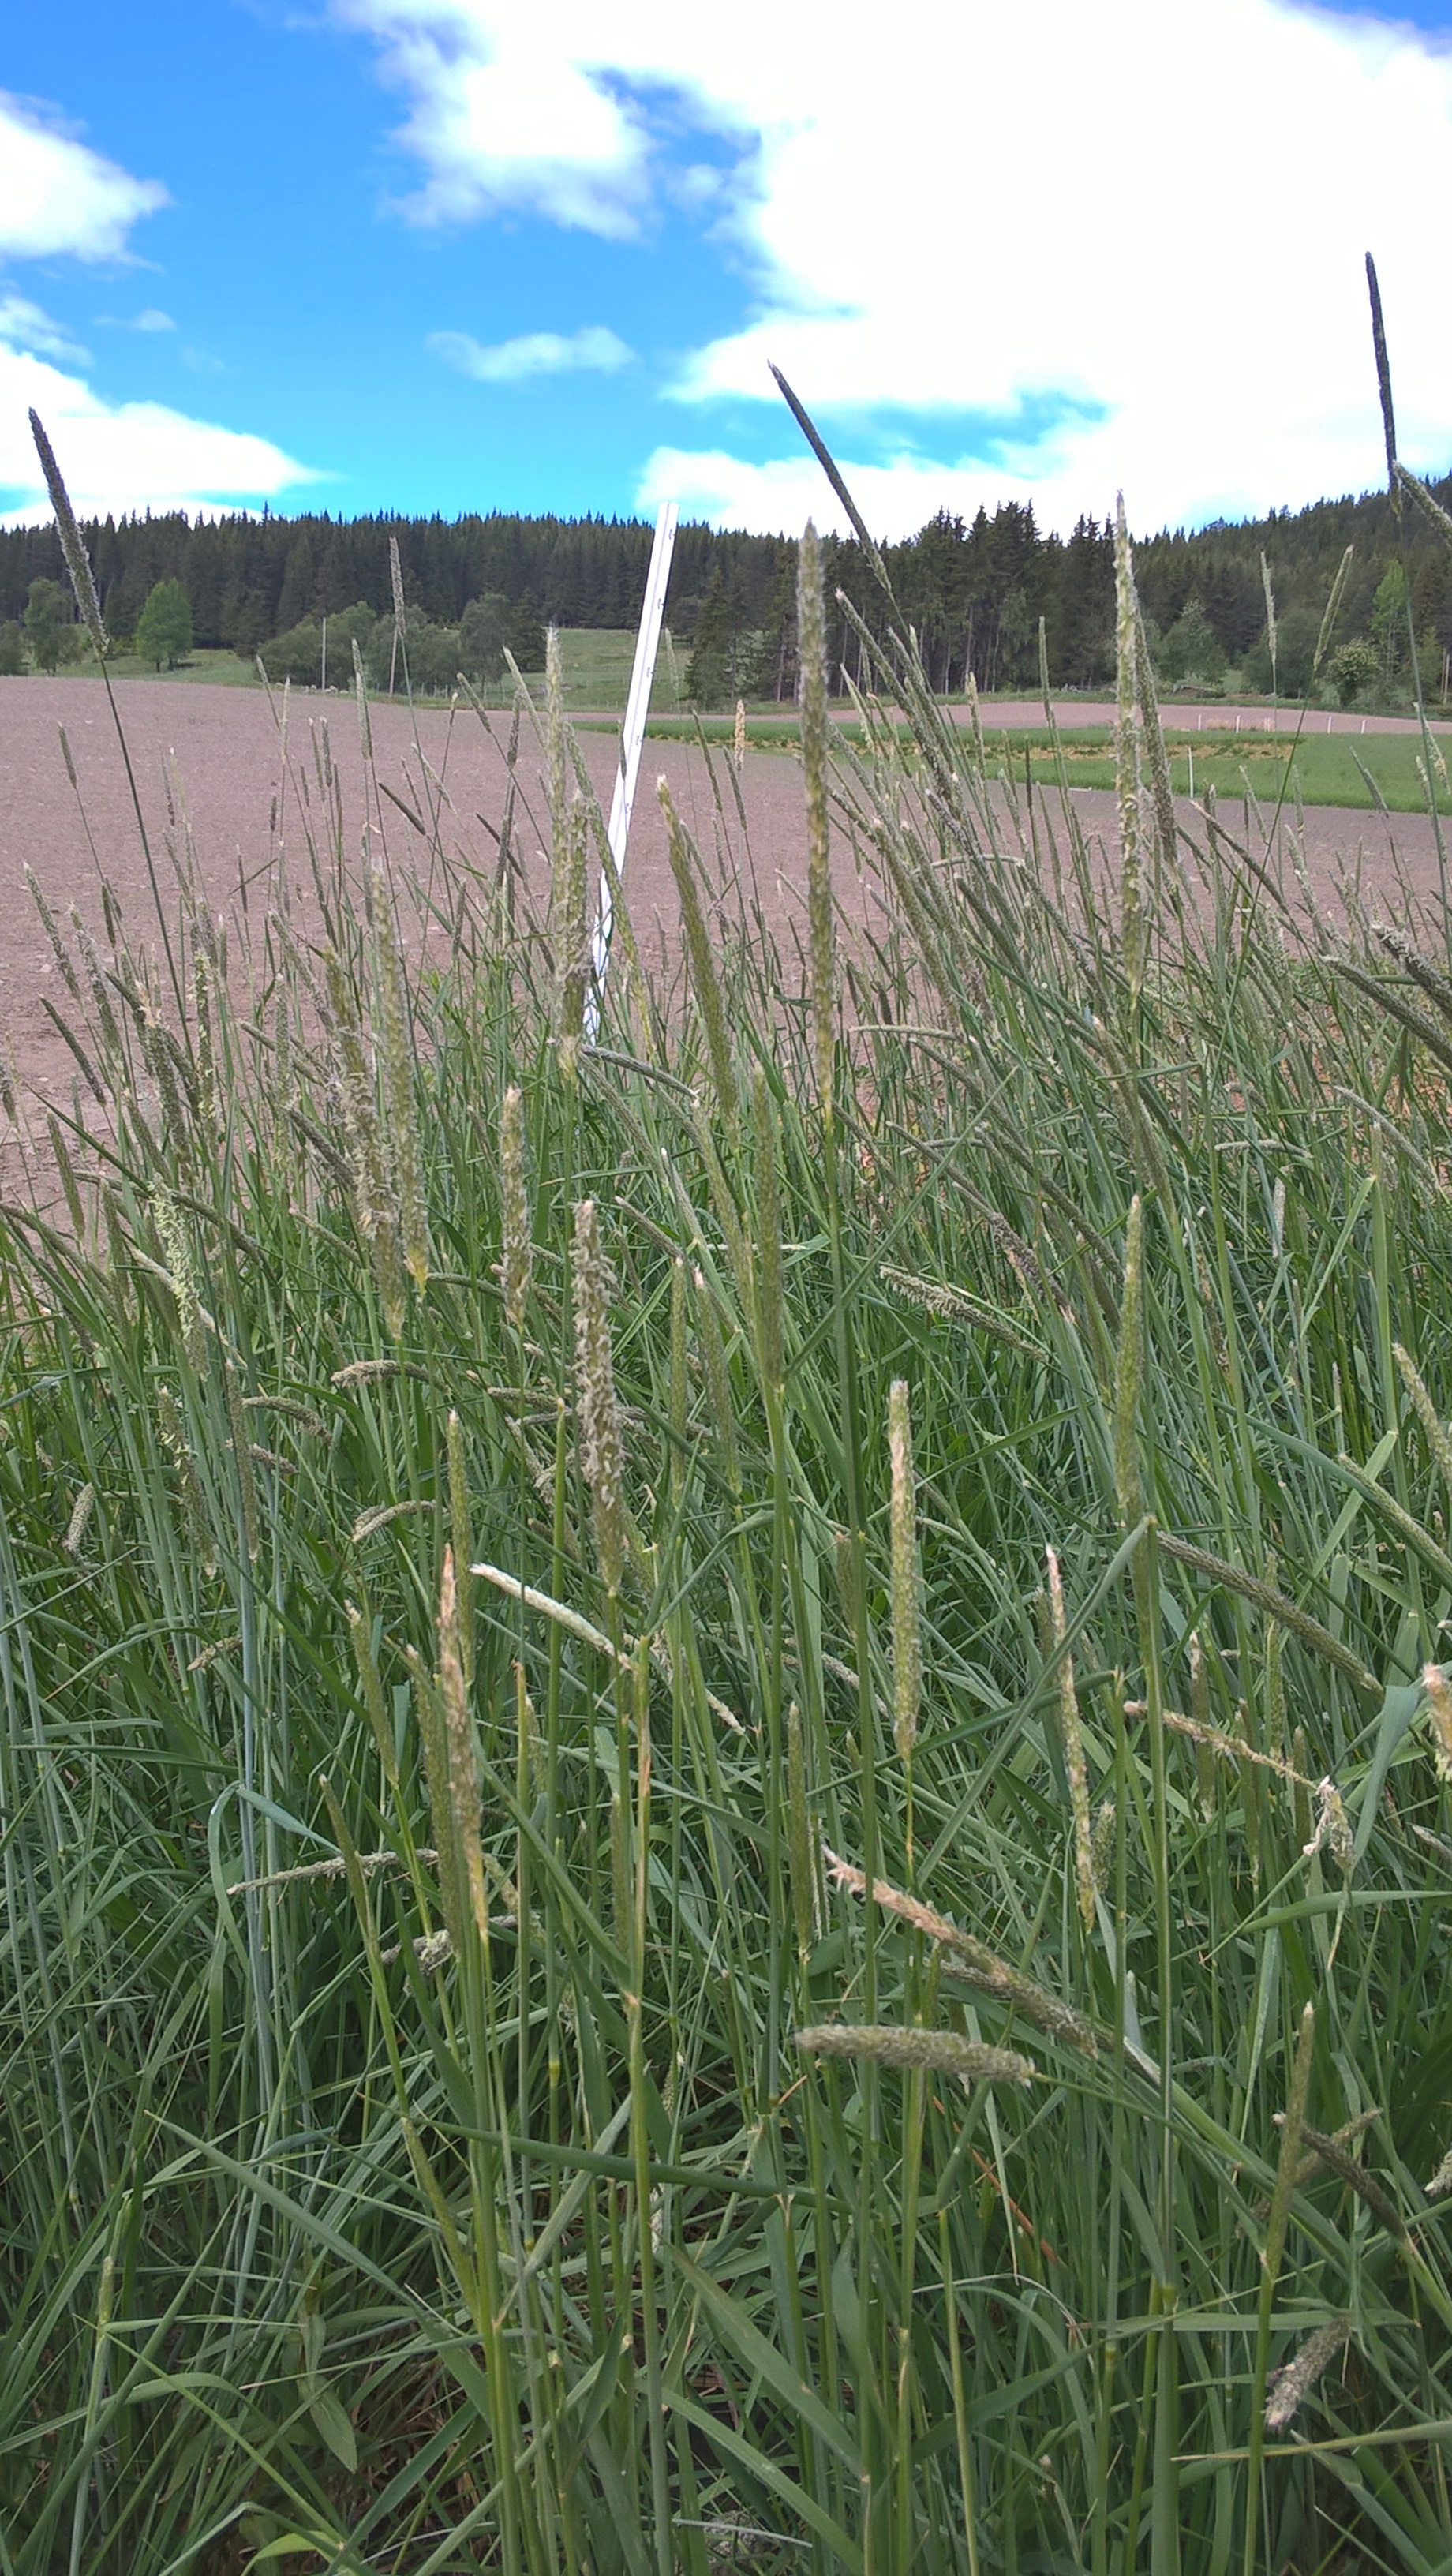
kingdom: Plantae
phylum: Tracheophyta
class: Liliopsida
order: Poales
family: Poaceae
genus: Alopecurus
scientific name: Alopecurus pratensis
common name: Meadow foxtail
